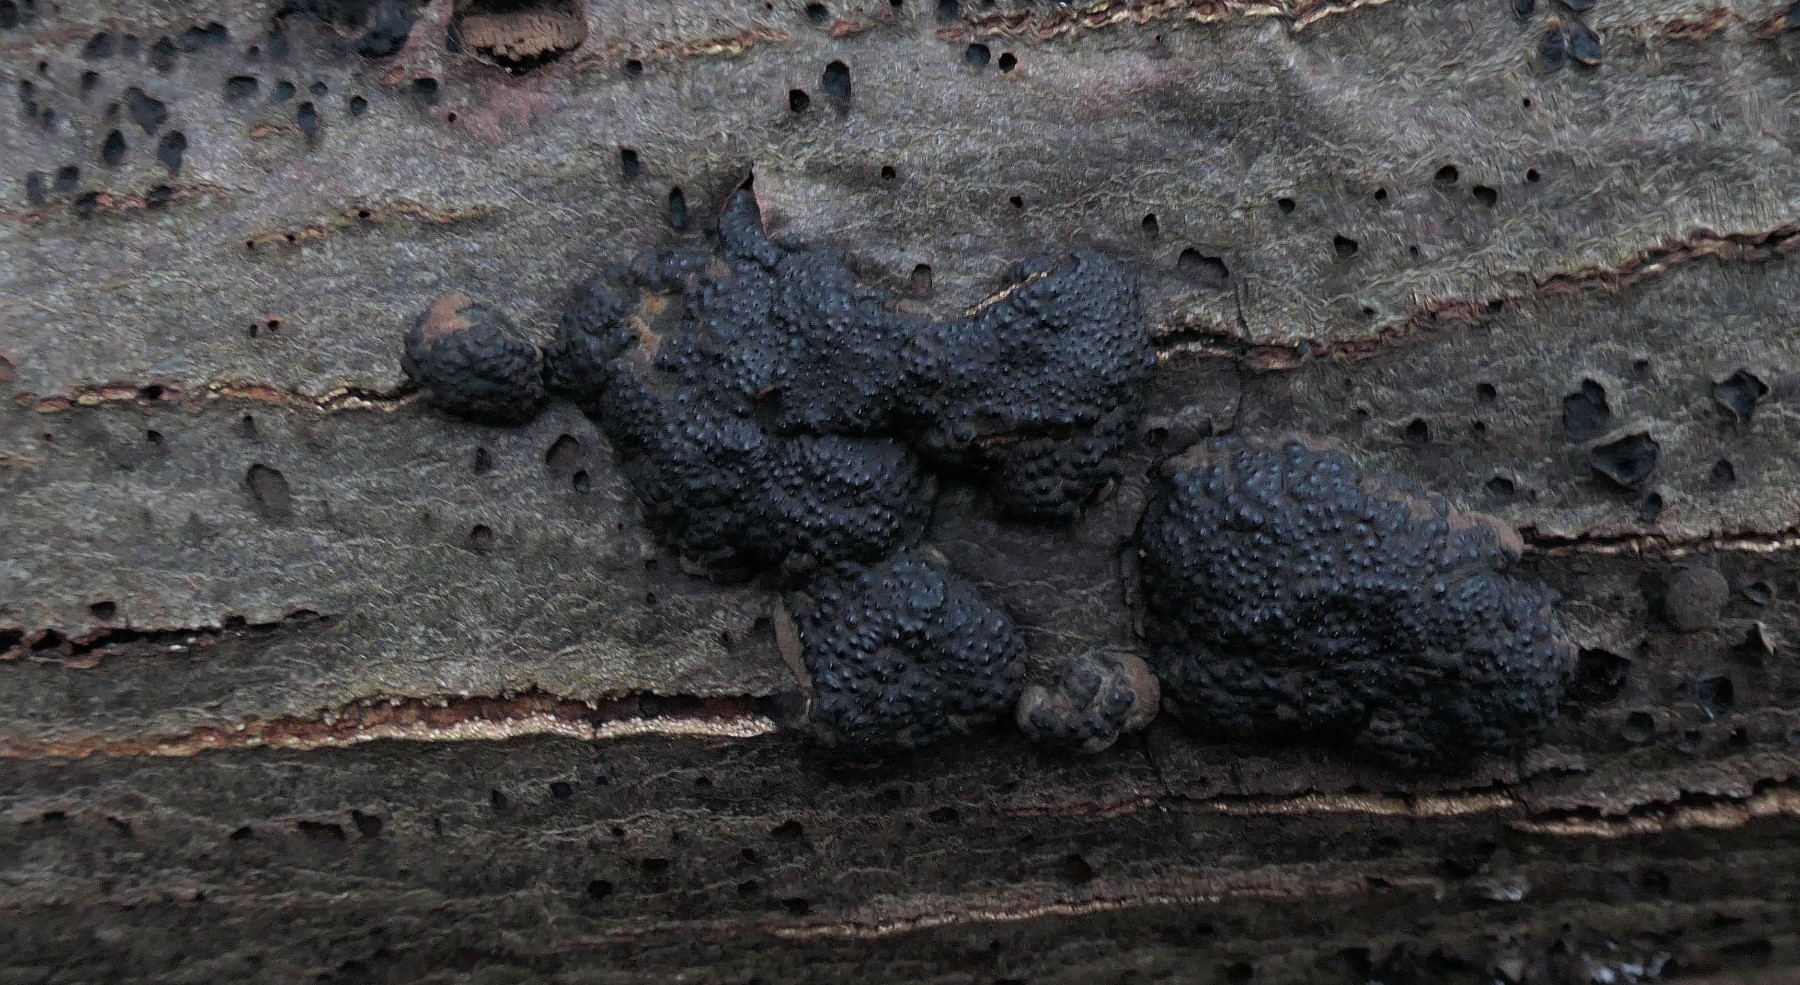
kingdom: Fungi
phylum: Ascomycota
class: Sordariomycetes
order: Xylariales
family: Hypoxylaceae
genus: Jackrogersella
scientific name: Jackrogersella multiformis
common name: foranderlig kulbær
